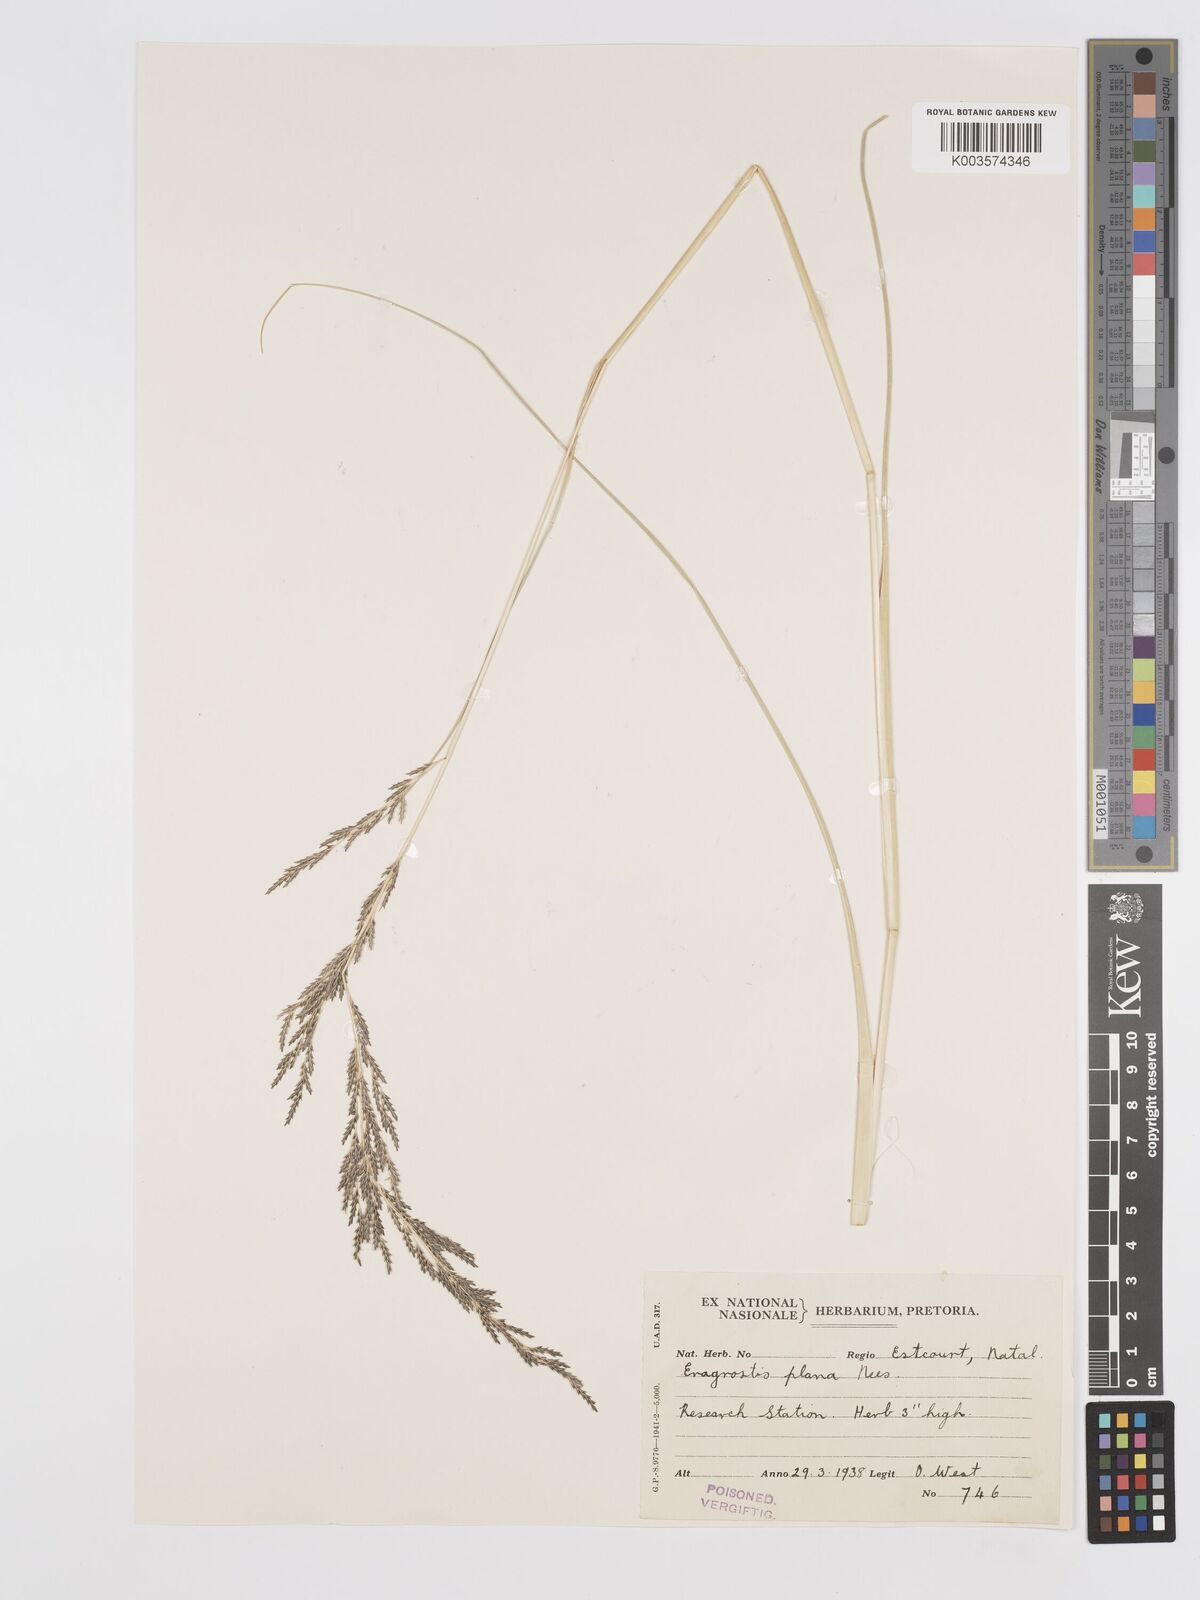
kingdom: Plantae
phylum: Tracheophyta
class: Liliopsida
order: Poales
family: Poaceae
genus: Eragrostis
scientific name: Eragrostis plana
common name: South african lovegrass
